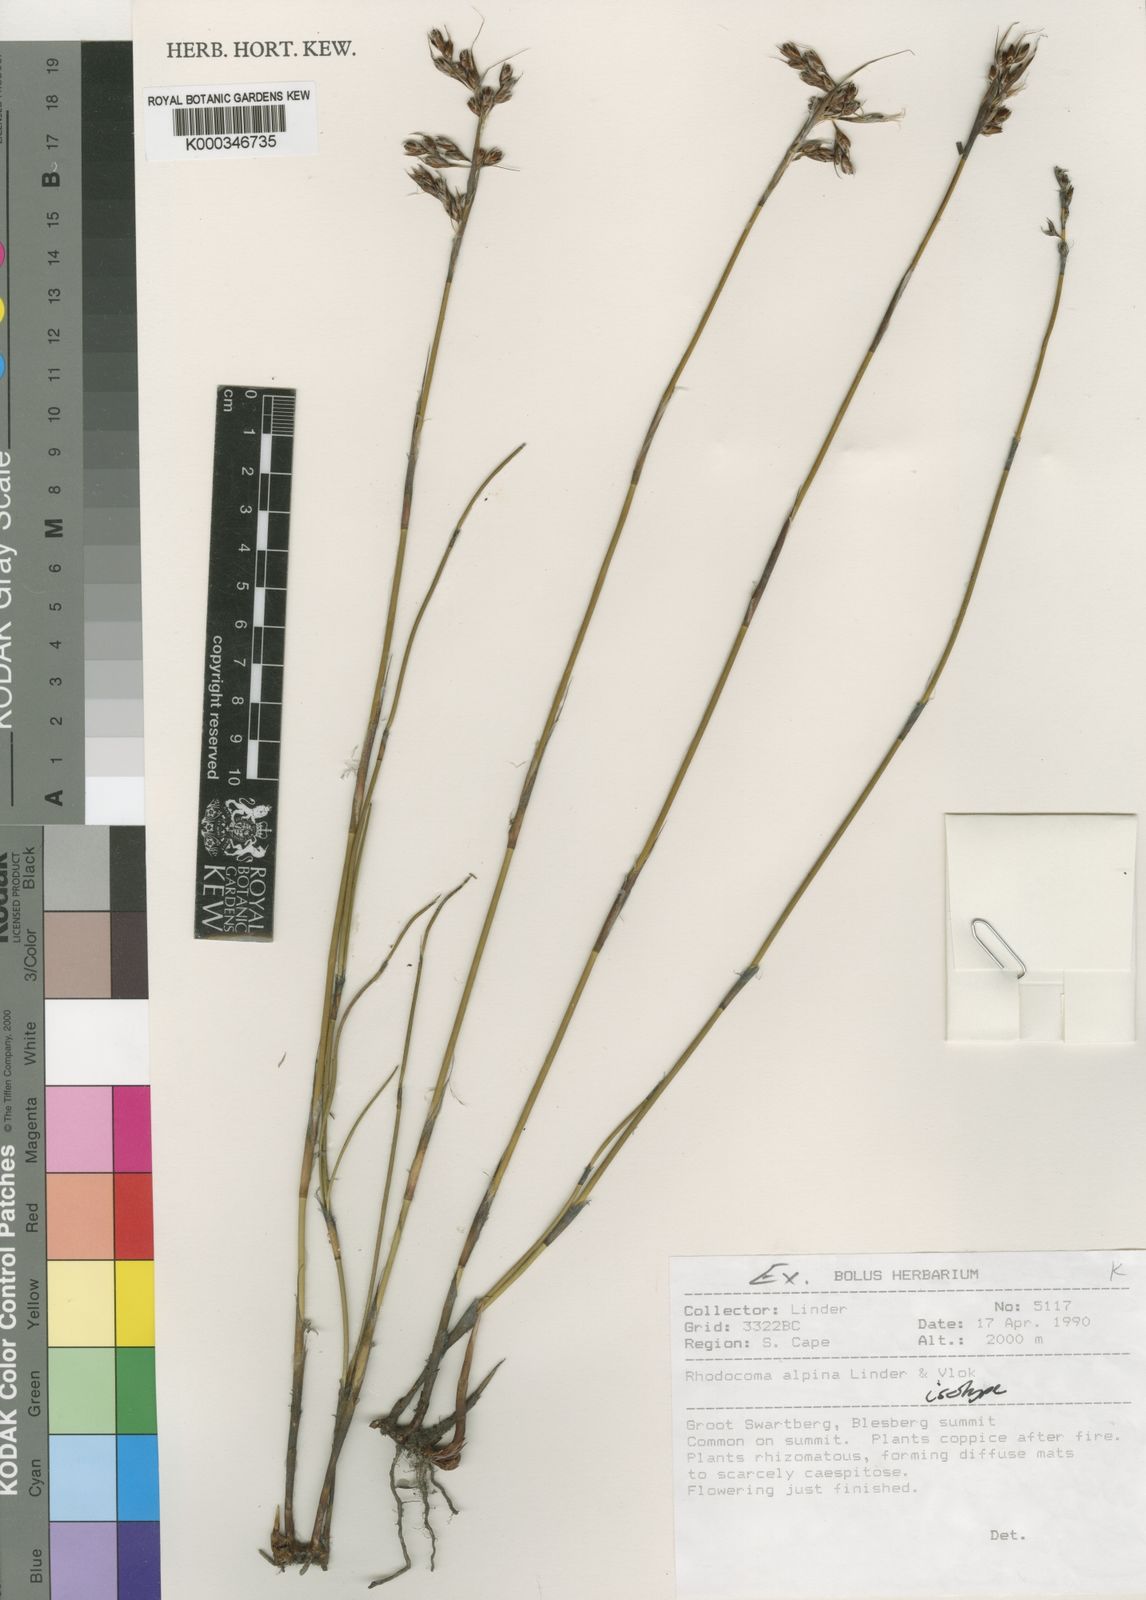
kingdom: Plantae
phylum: Tracheophyta
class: Liliopsida
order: Poales
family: Restionaceae
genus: Rhodocoma
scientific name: Rhodocoma alpina
